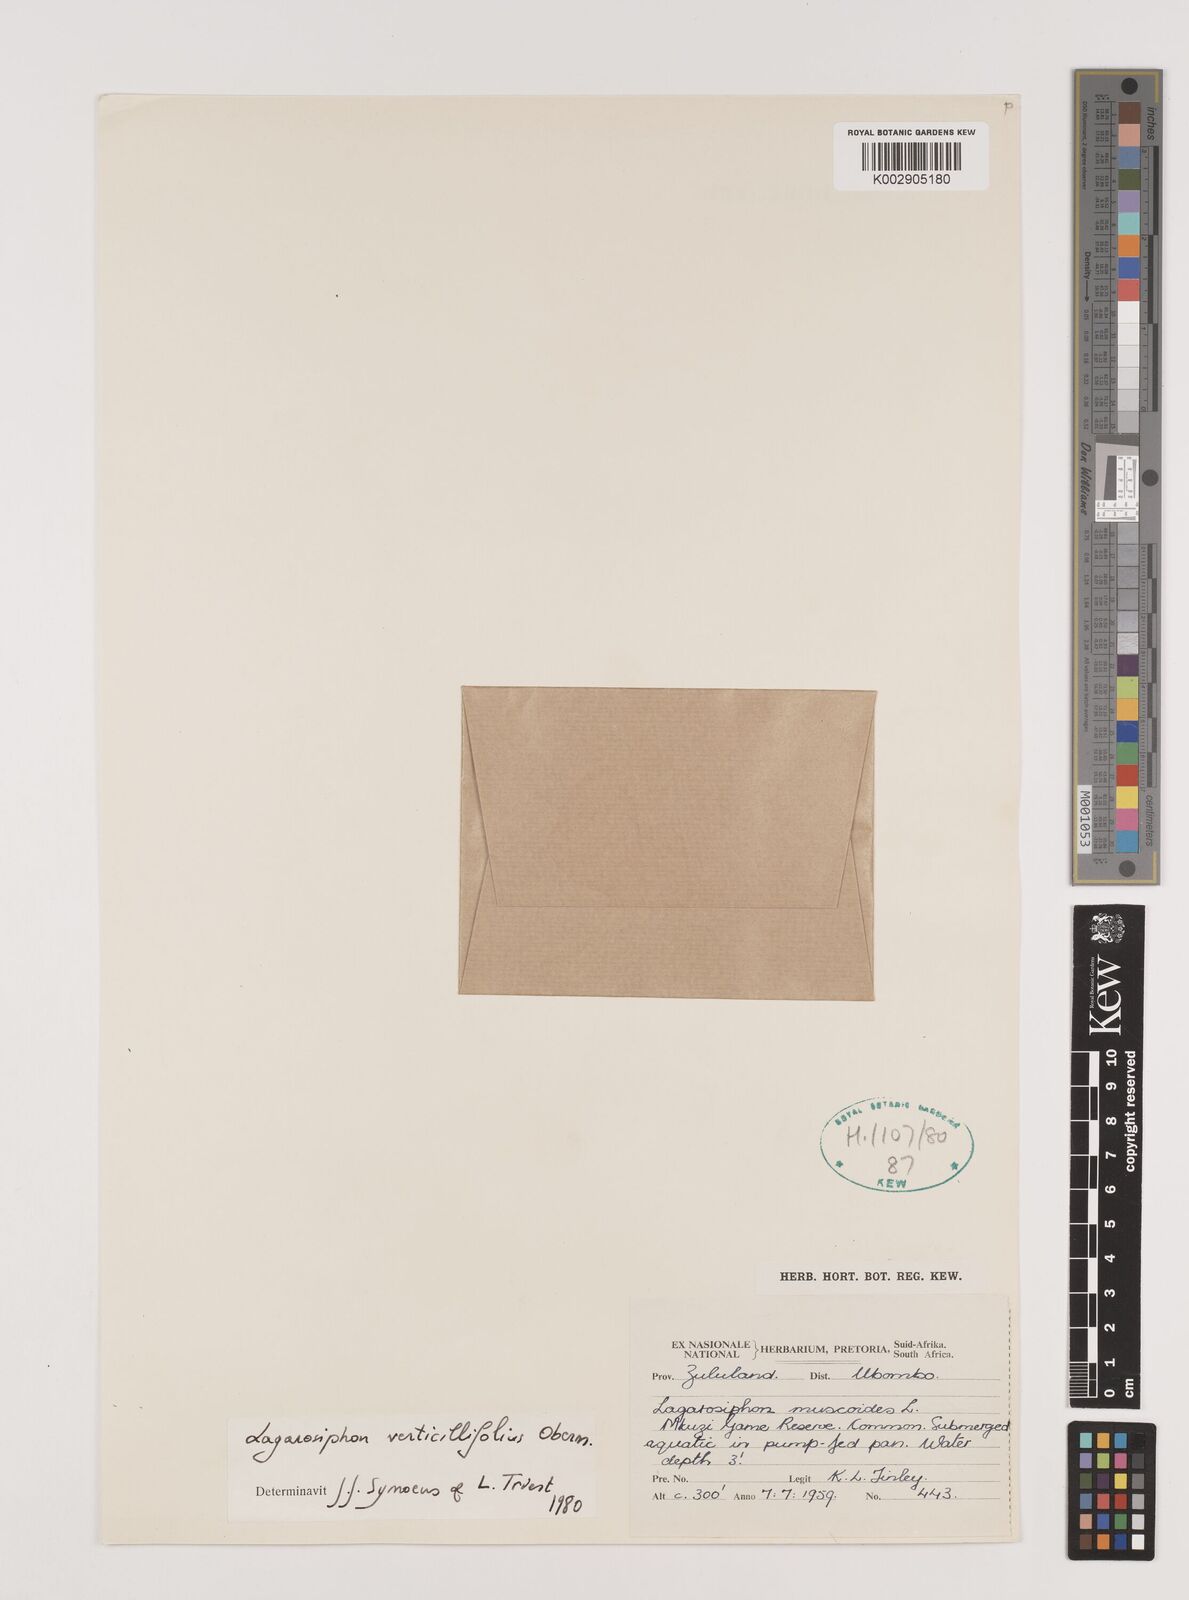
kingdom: Plantae
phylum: Tracheophyta
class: Liliopsida
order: Alismatales
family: Hydrocharitaceae
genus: Lagarosiphon
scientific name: Lagarosiphon verticillifolius
